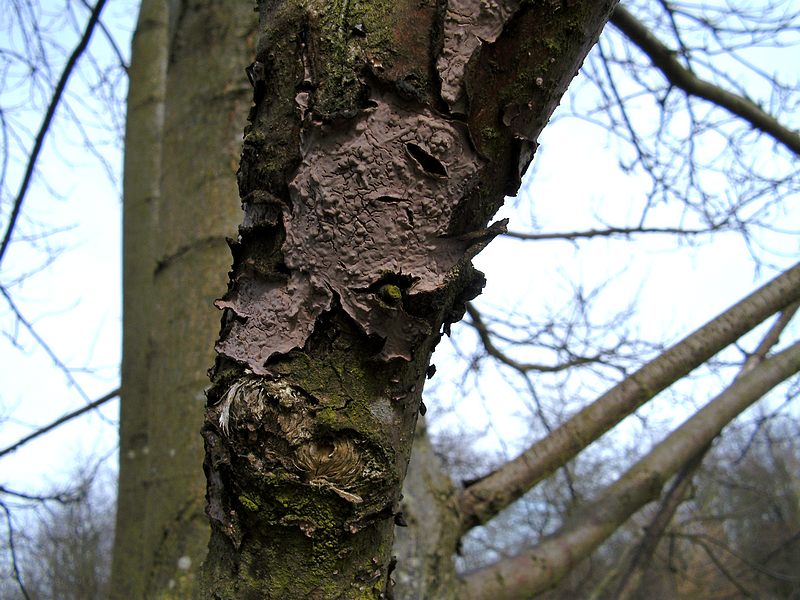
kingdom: Fungi
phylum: Basidiomycota
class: Agaricomycetes
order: Russulales
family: Peniophoraceae
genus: Peniophora
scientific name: Peniophora quercina
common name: ege-voksskind
